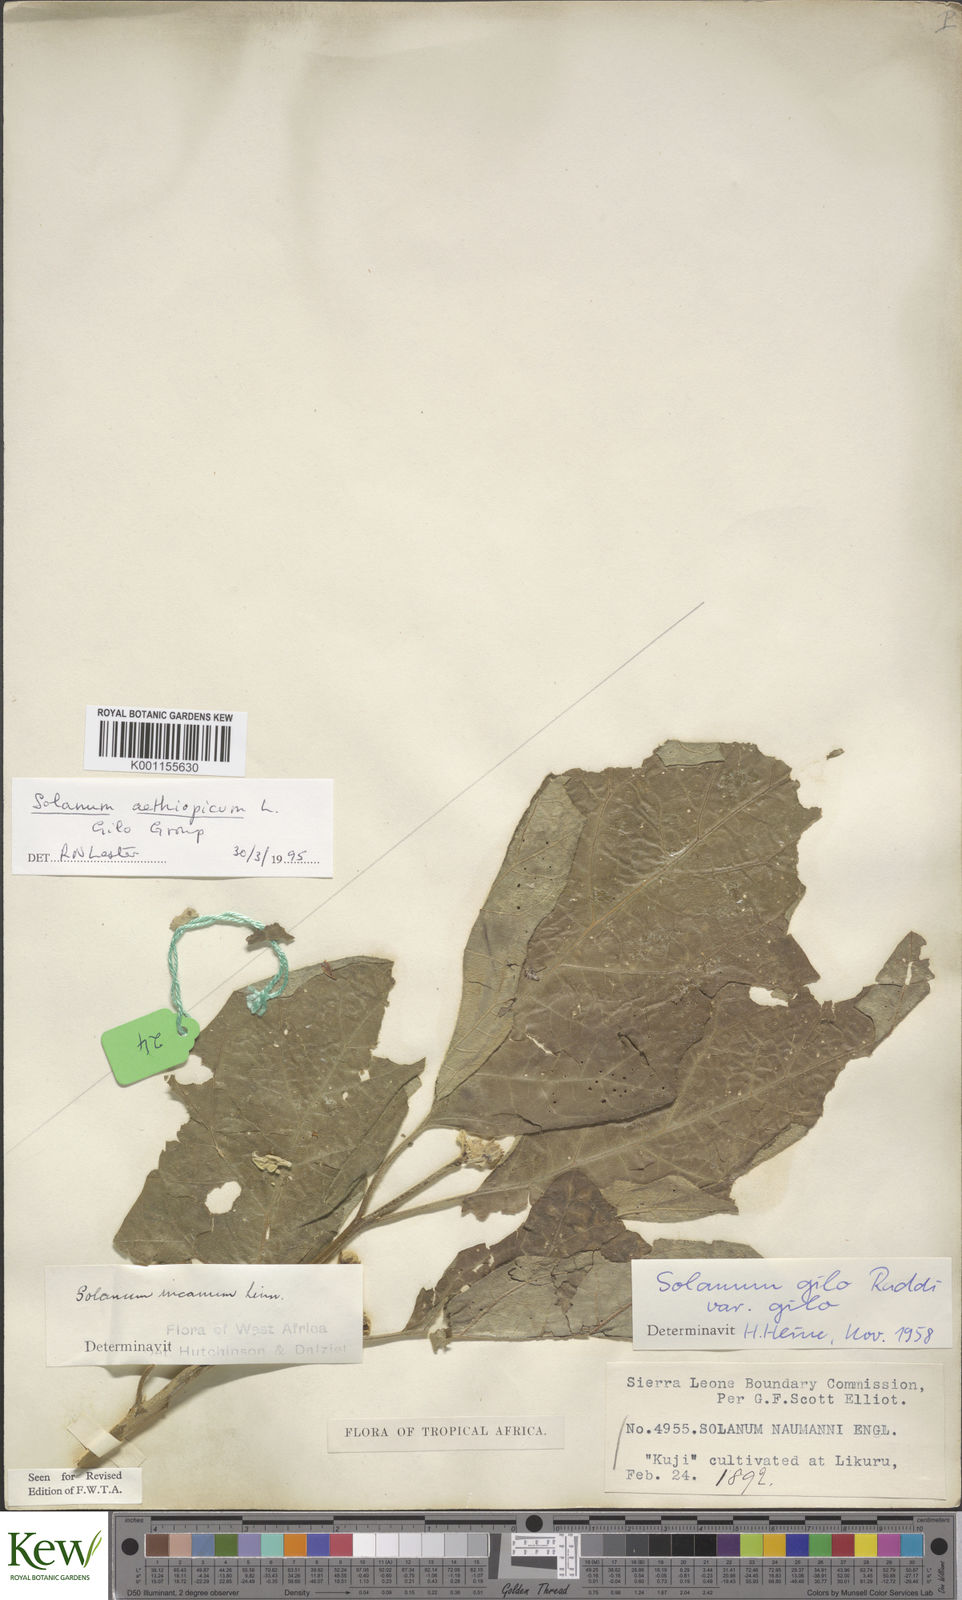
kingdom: Plantae
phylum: Tracheophyta
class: Magnoliopsida
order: Solanales
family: Solanaceae
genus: Solanum
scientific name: Solanum aethiopicum
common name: Gilo
